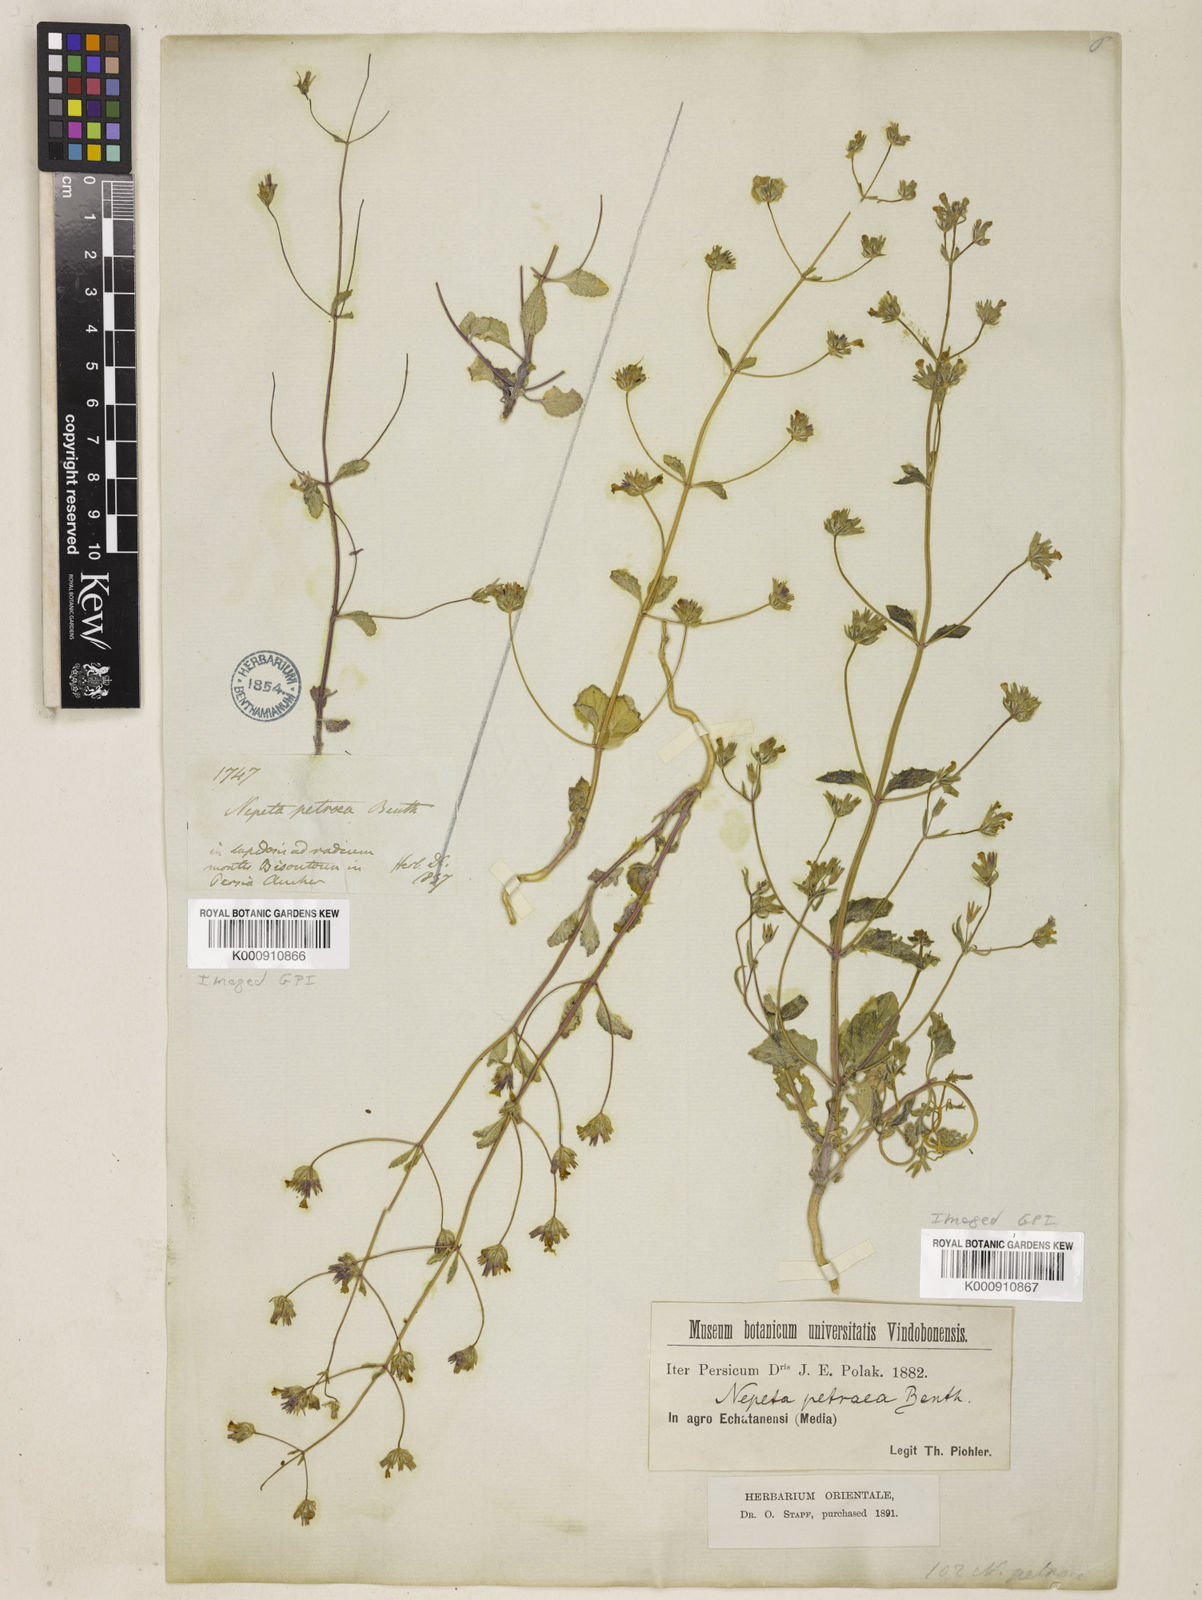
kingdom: Plantae
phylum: Tracheophyta
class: Magnoliopsida
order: Lamiales
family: Lamiaceae
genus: Nepeta
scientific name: Nepeta petraea
